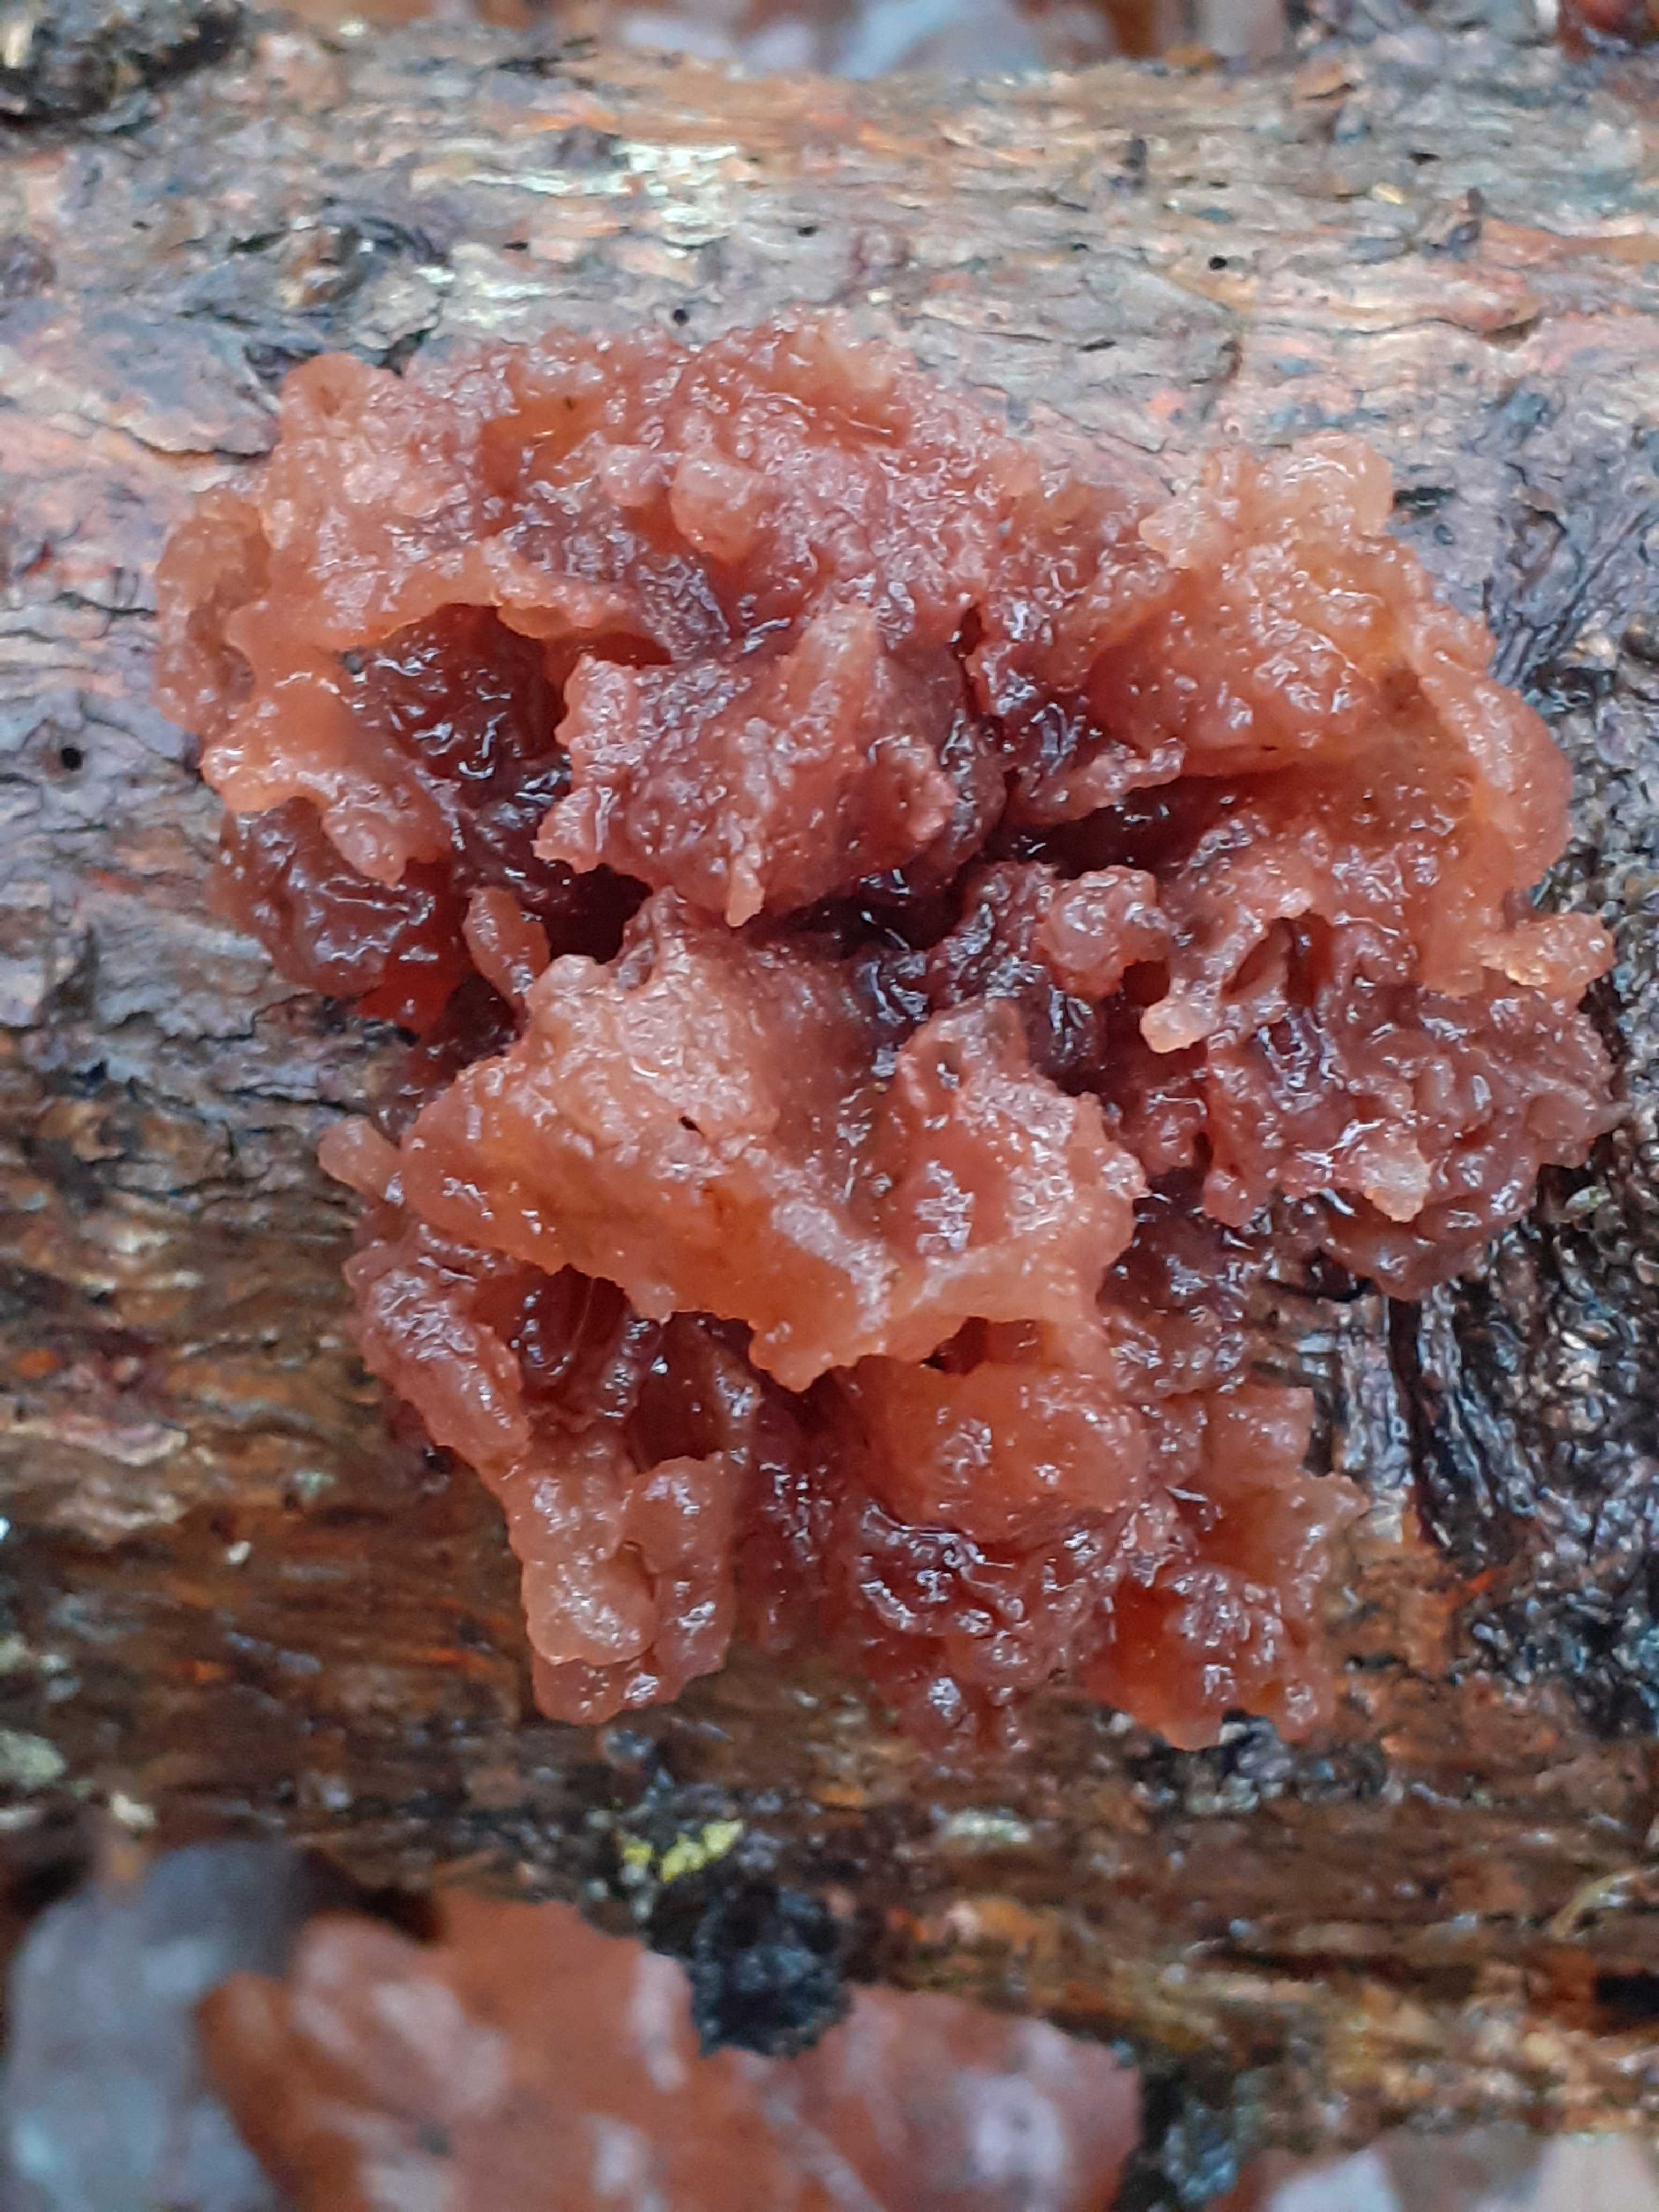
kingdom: Fungi
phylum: Basidiomycota
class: Tremellomycetes
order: Tremellales
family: Tremellaceae
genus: Phaeotremella
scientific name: Phaeotremella foliacea
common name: brun bævresvamp
